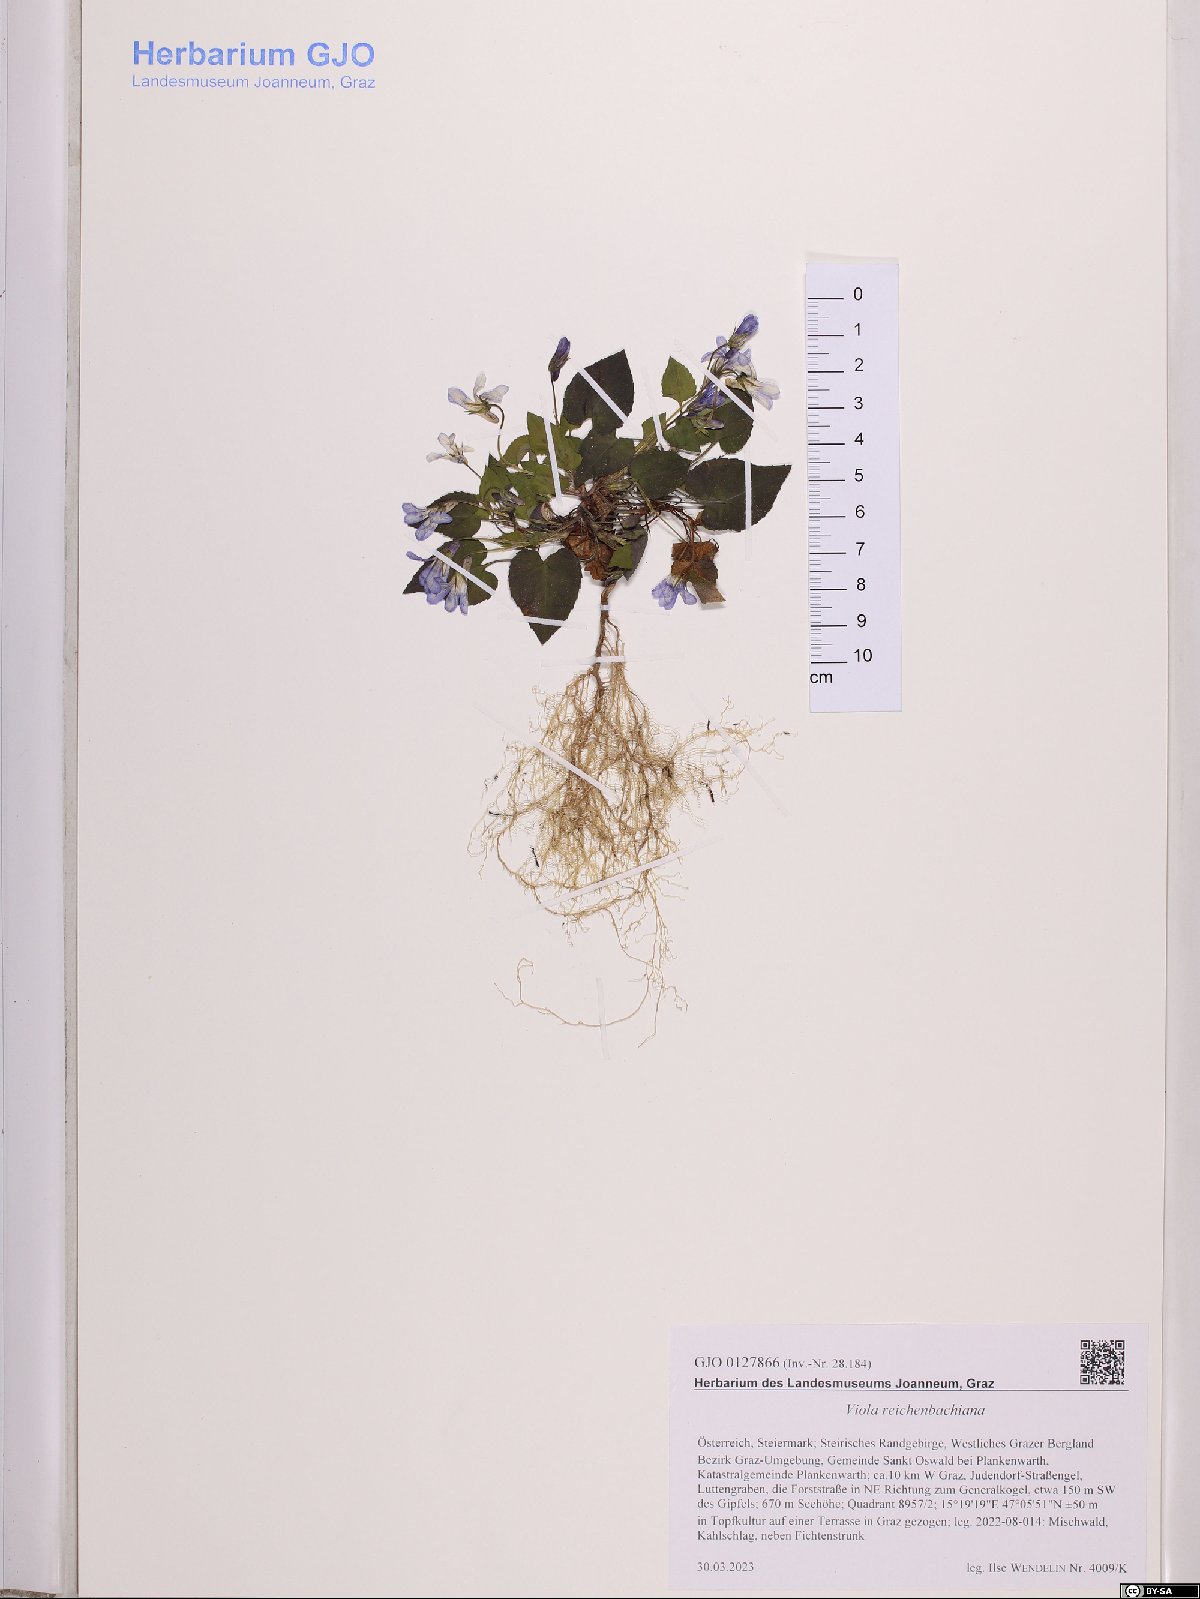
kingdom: Plantae
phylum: Tracheophyta
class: Magnoliopsida
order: Malpighiales
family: Violaceae
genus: Viola
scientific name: Viola reichenbachiana
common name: Early dog-violet
